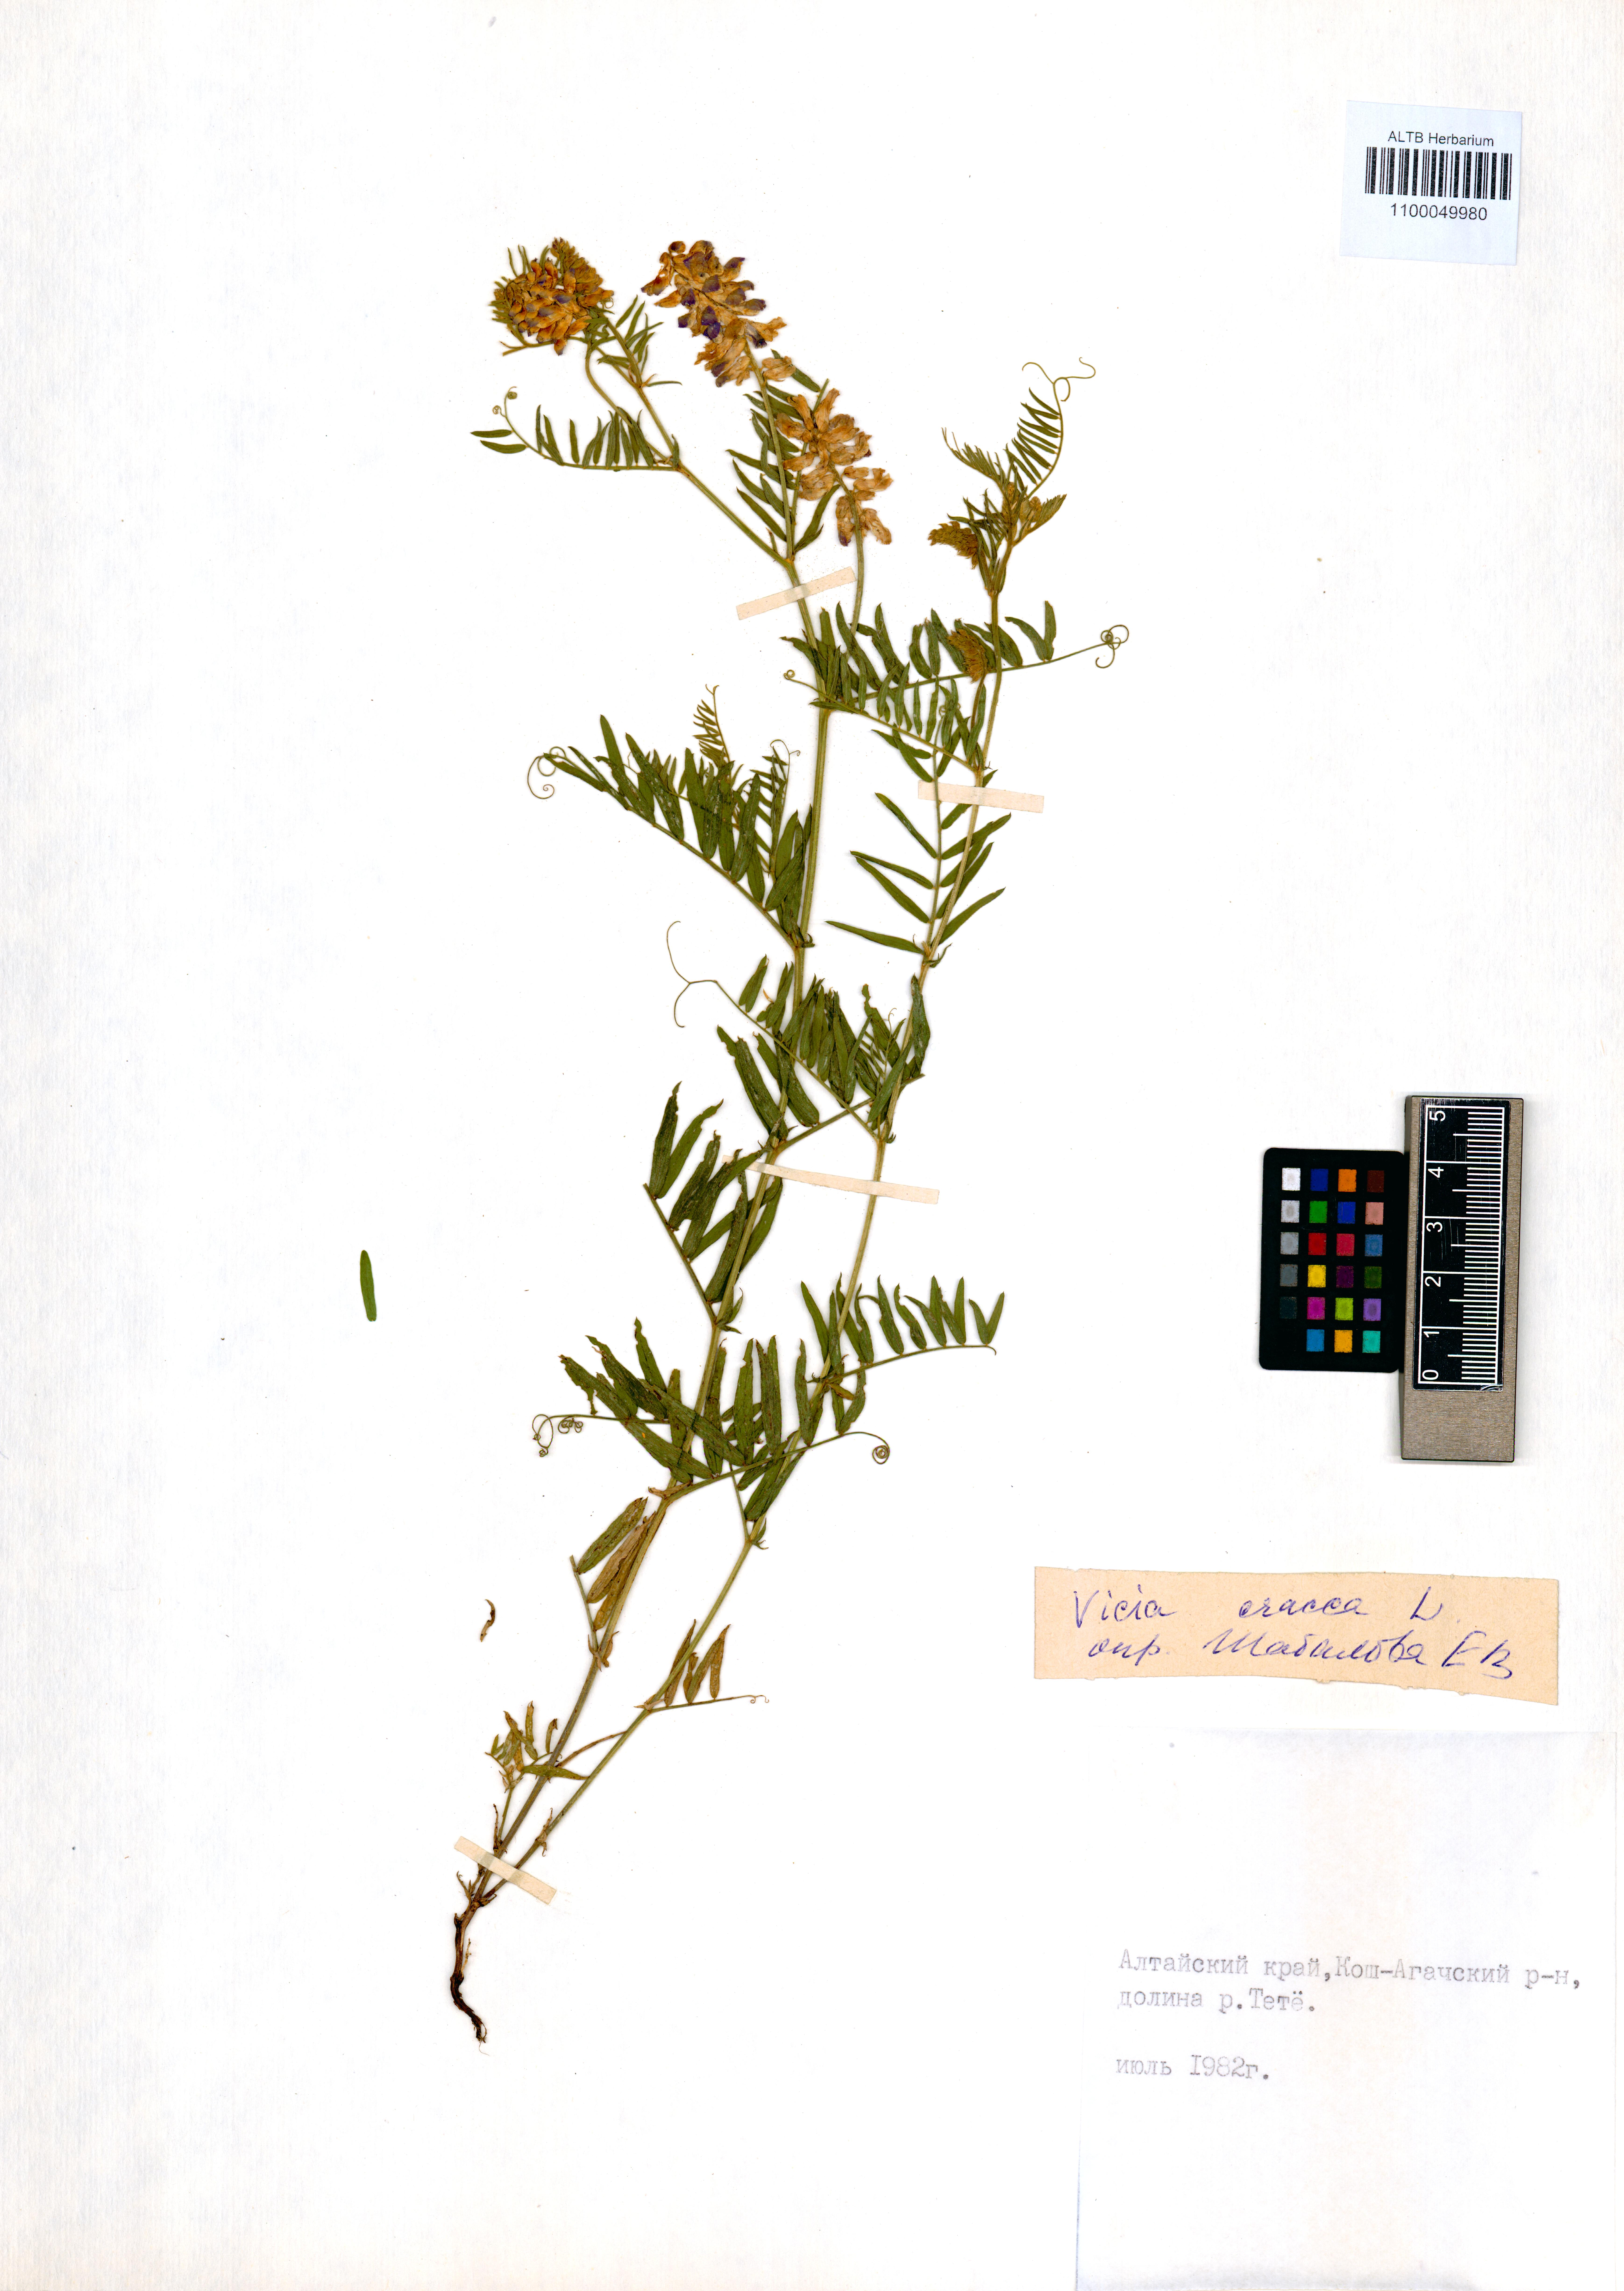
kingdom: Plantae
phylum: Tracheophyta
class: Magnoliopsida
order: Fabales
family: Fabaceae
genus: Vicia
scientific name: Vicia cracca
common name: Bird vetch
